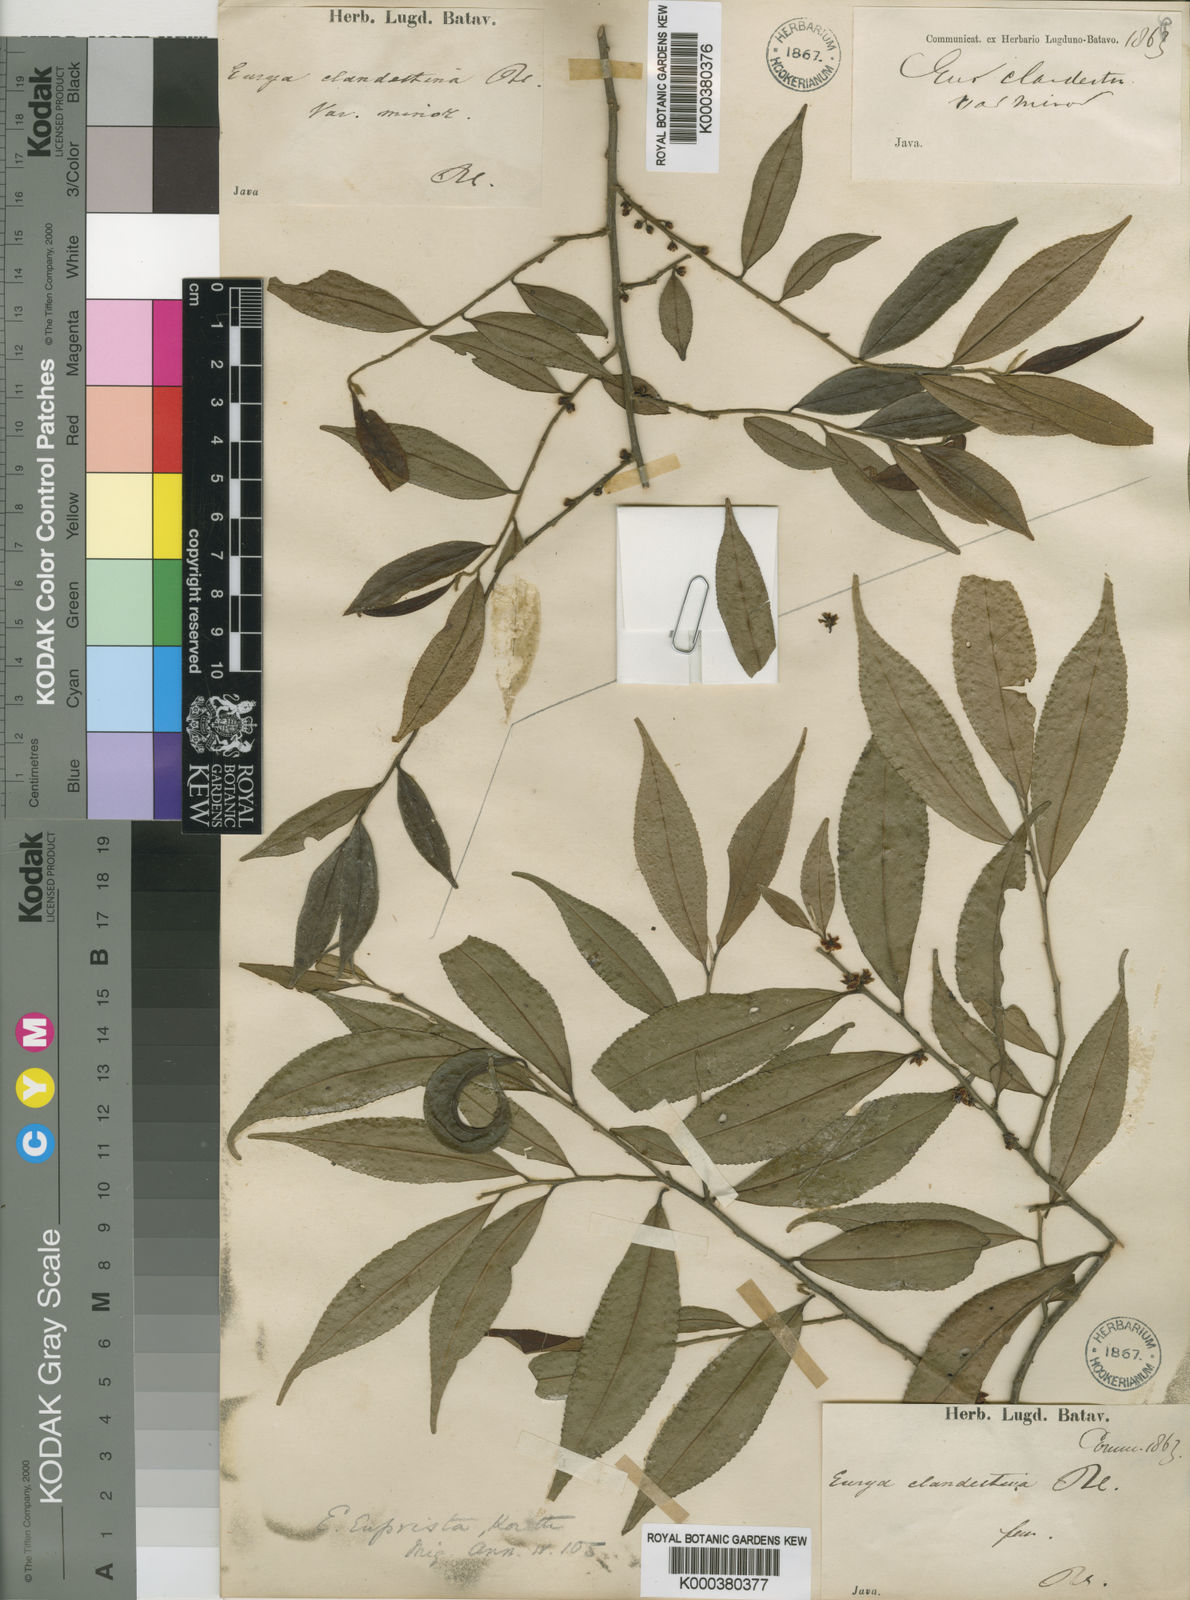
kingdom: Plantae
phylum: Tracheophyta
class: Magnoliopsida
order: Ericales
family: Pentaphylacaceae
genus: Eurya
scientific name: Eurya acuminata
